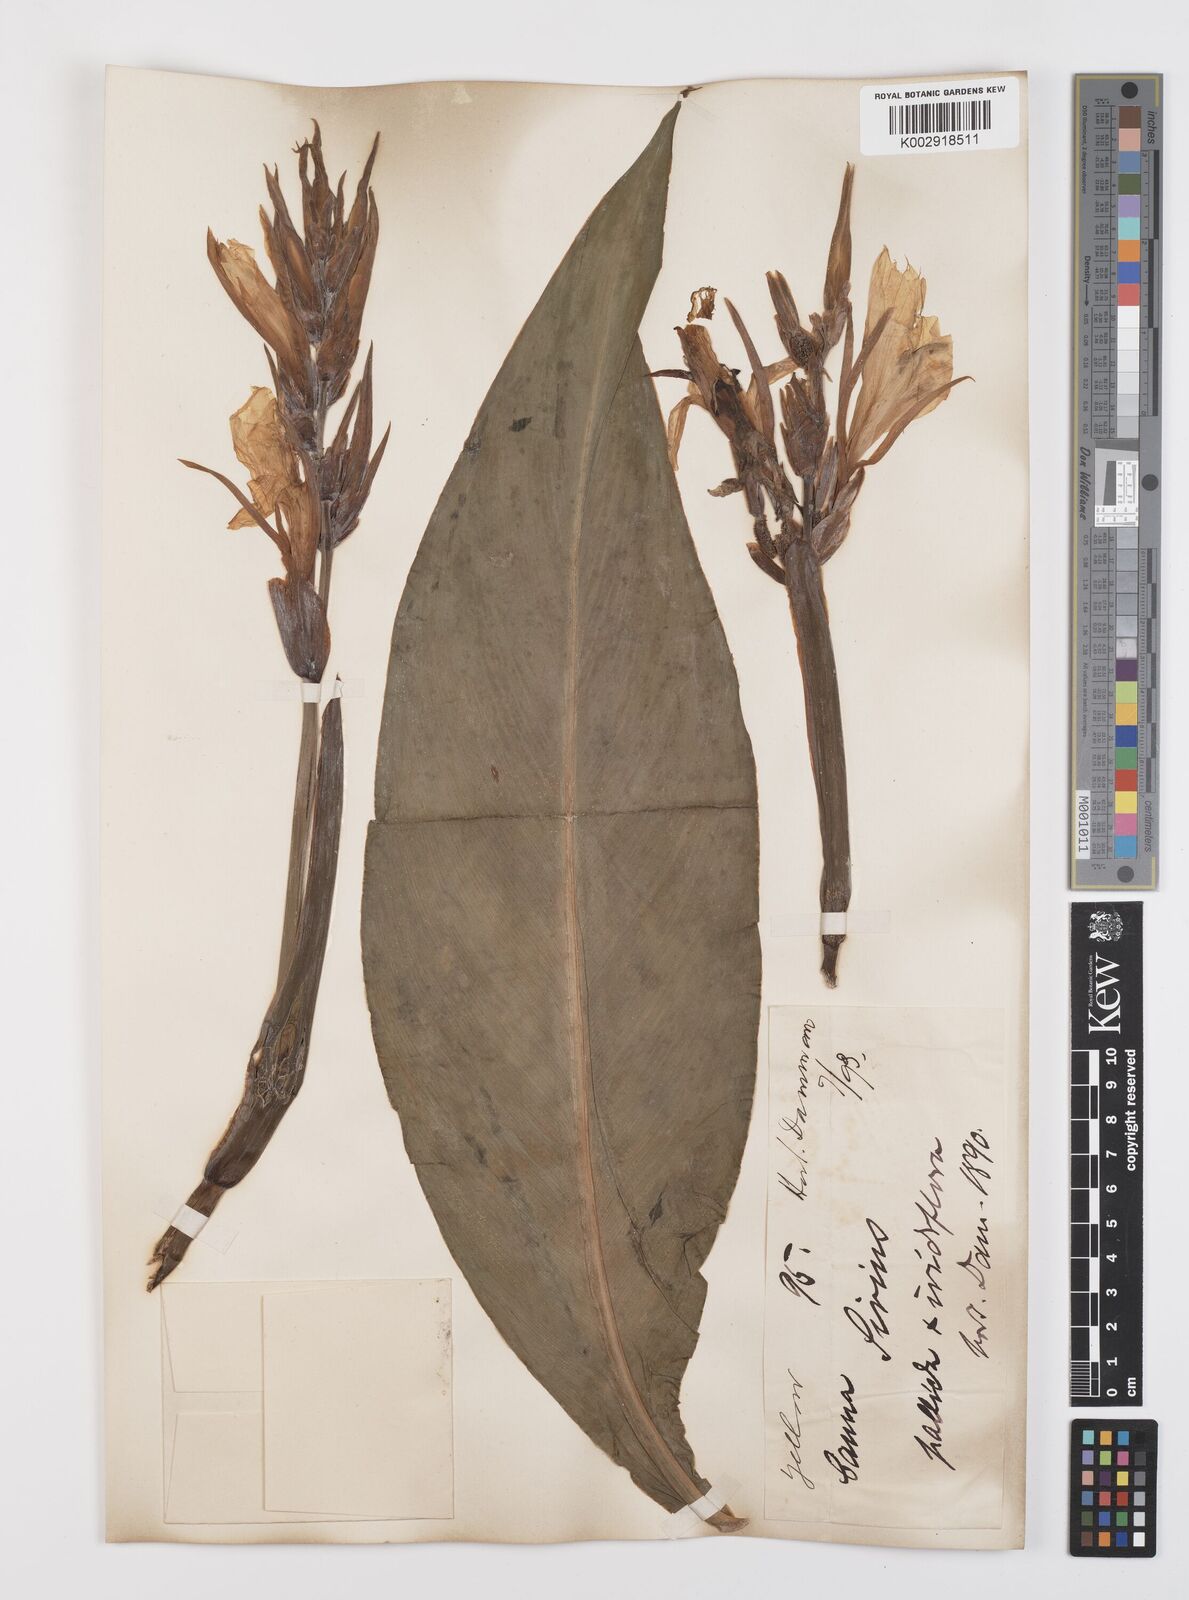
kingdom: Plantae
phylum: Tracheophyta
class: Liliopsida
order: Zingiberales
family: Cannaceae
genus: Canna
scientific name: Canna indica
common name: Indian shot
